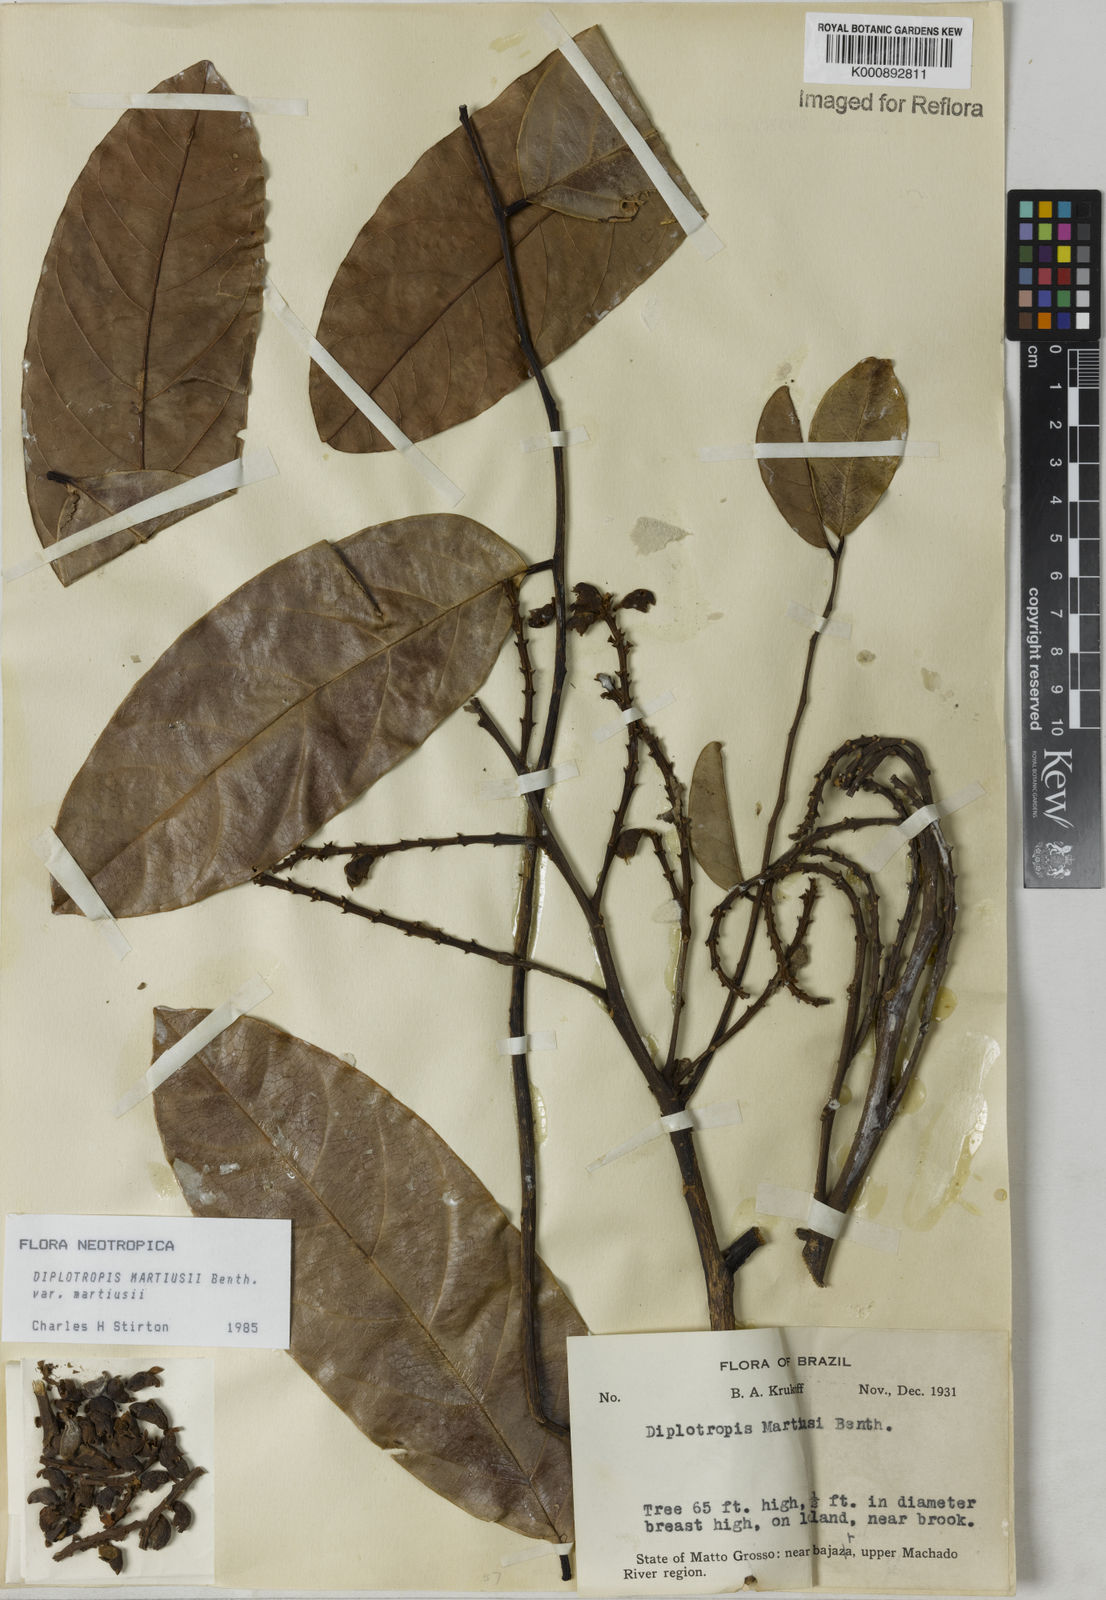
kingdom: Plantae
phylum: Tracheophyta
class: Magnoliopsida
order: Fabales
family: Fabaceae
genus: Diplotropis
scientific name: Diplotropis
